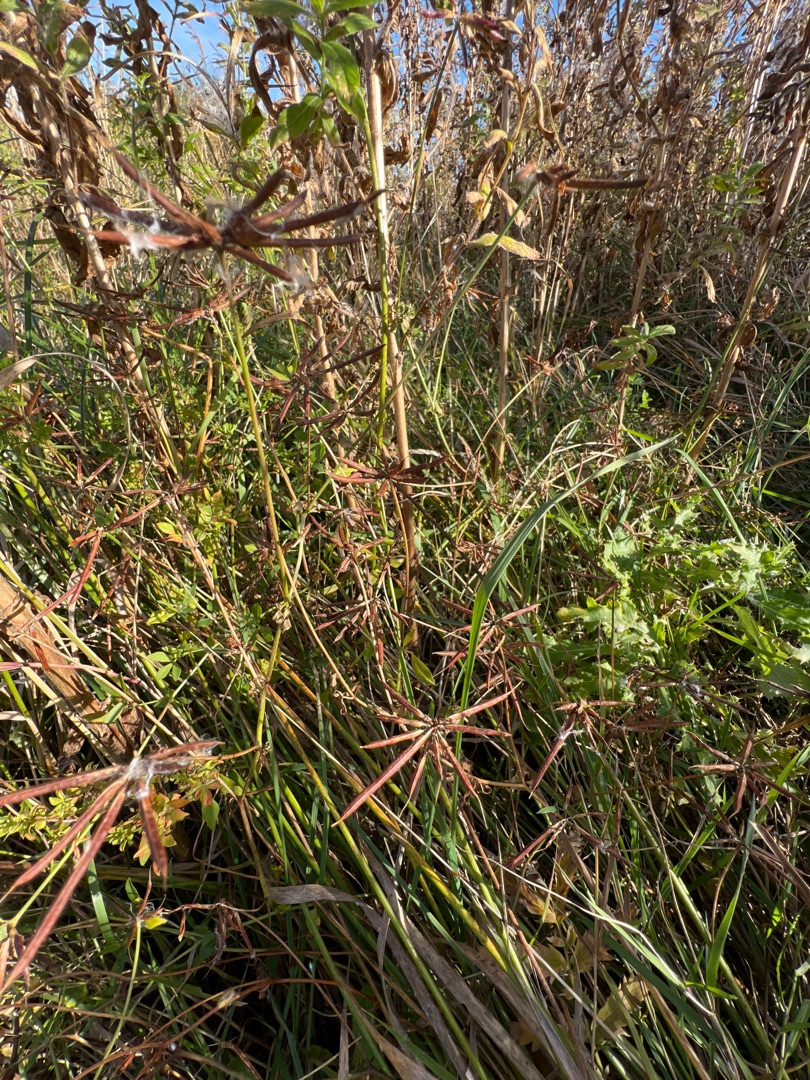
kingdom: Plantae
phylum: Tracheophyta
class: Magnoliopsida
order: Fabales
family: Fabaceae
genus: Lotus
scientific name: Lotus pedunculatus
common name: Sump-kællingetand (varietet)
